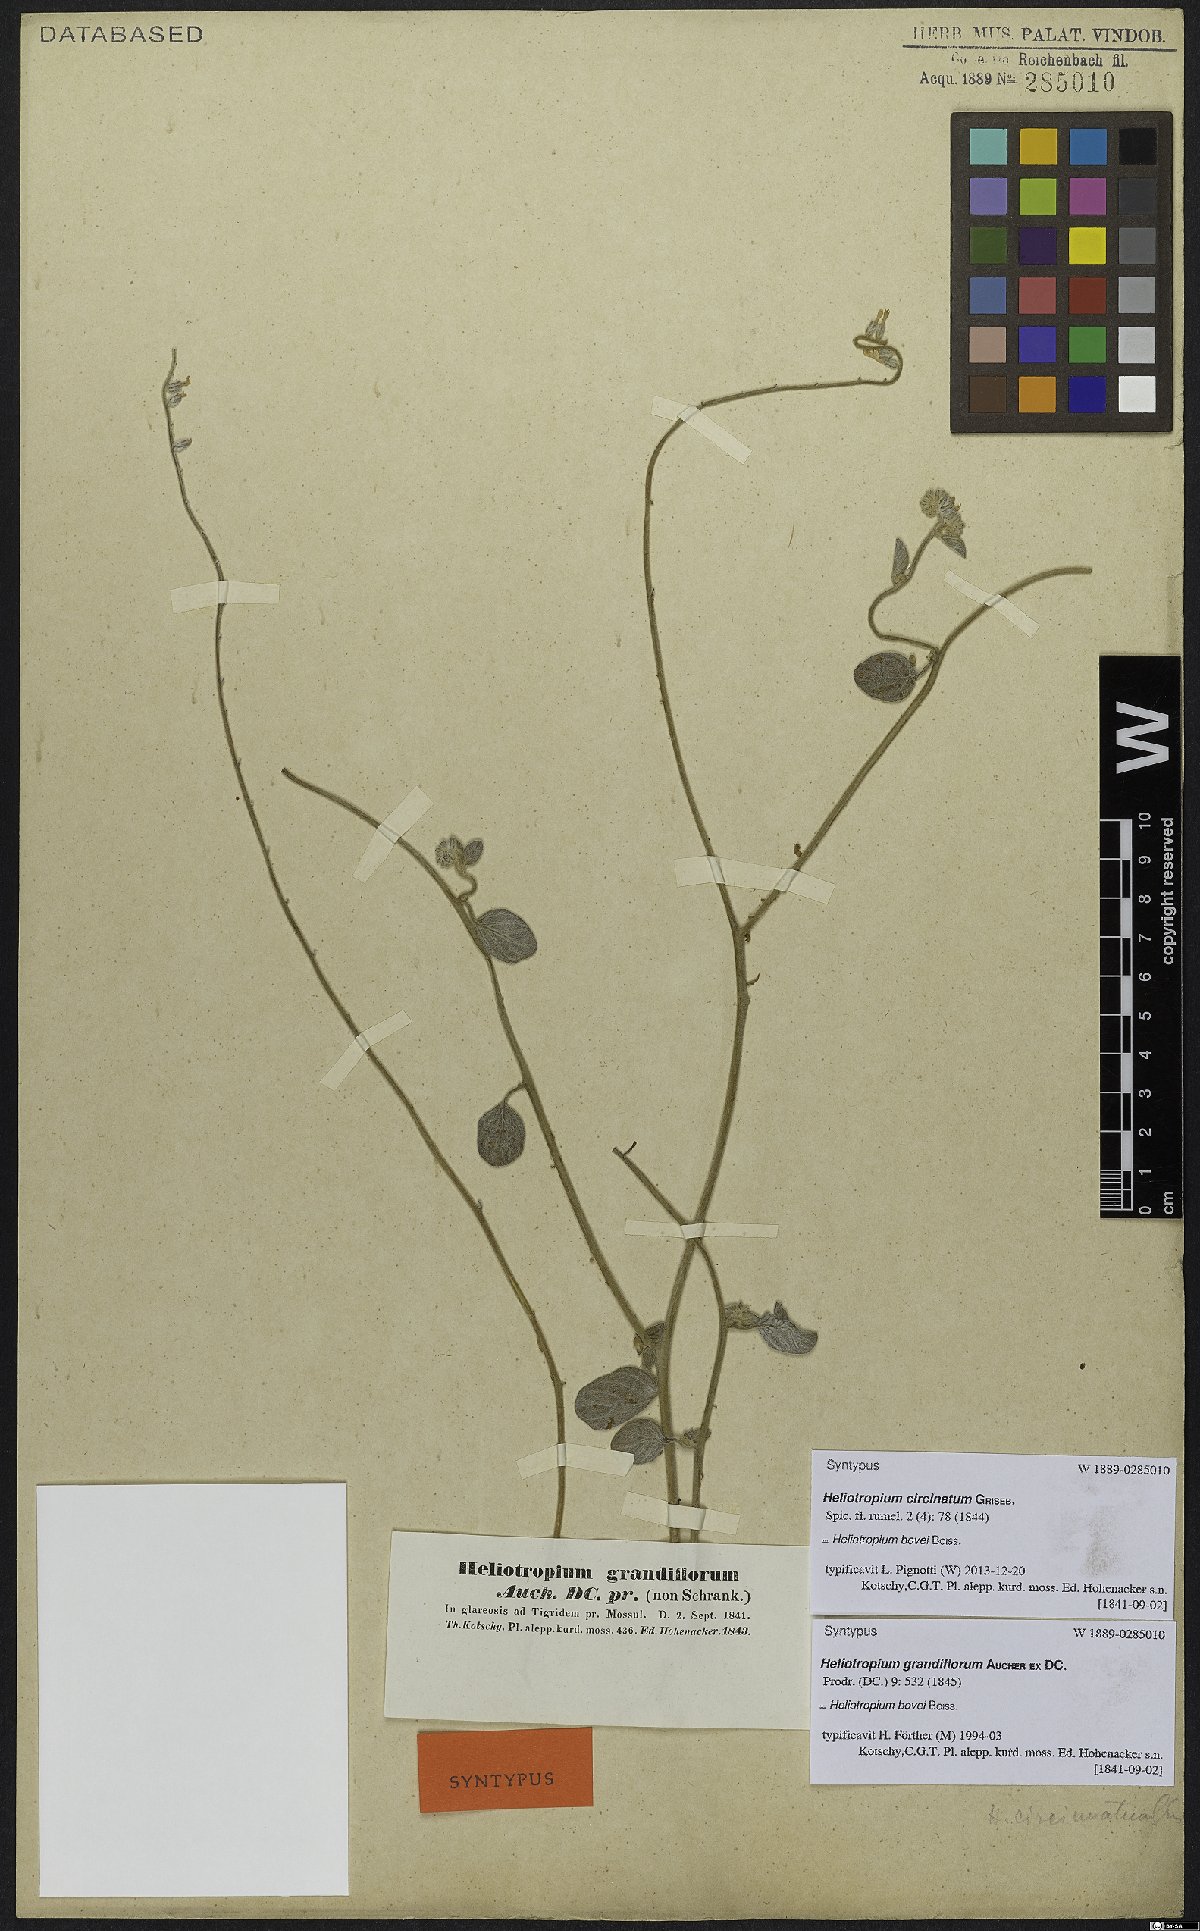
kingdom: Plantae
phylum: Tracheophyta
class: Magnoliopsida
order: Boraginales
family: Heliotropiaceae
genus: Heliotropium
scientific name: Heliotropium bovei
